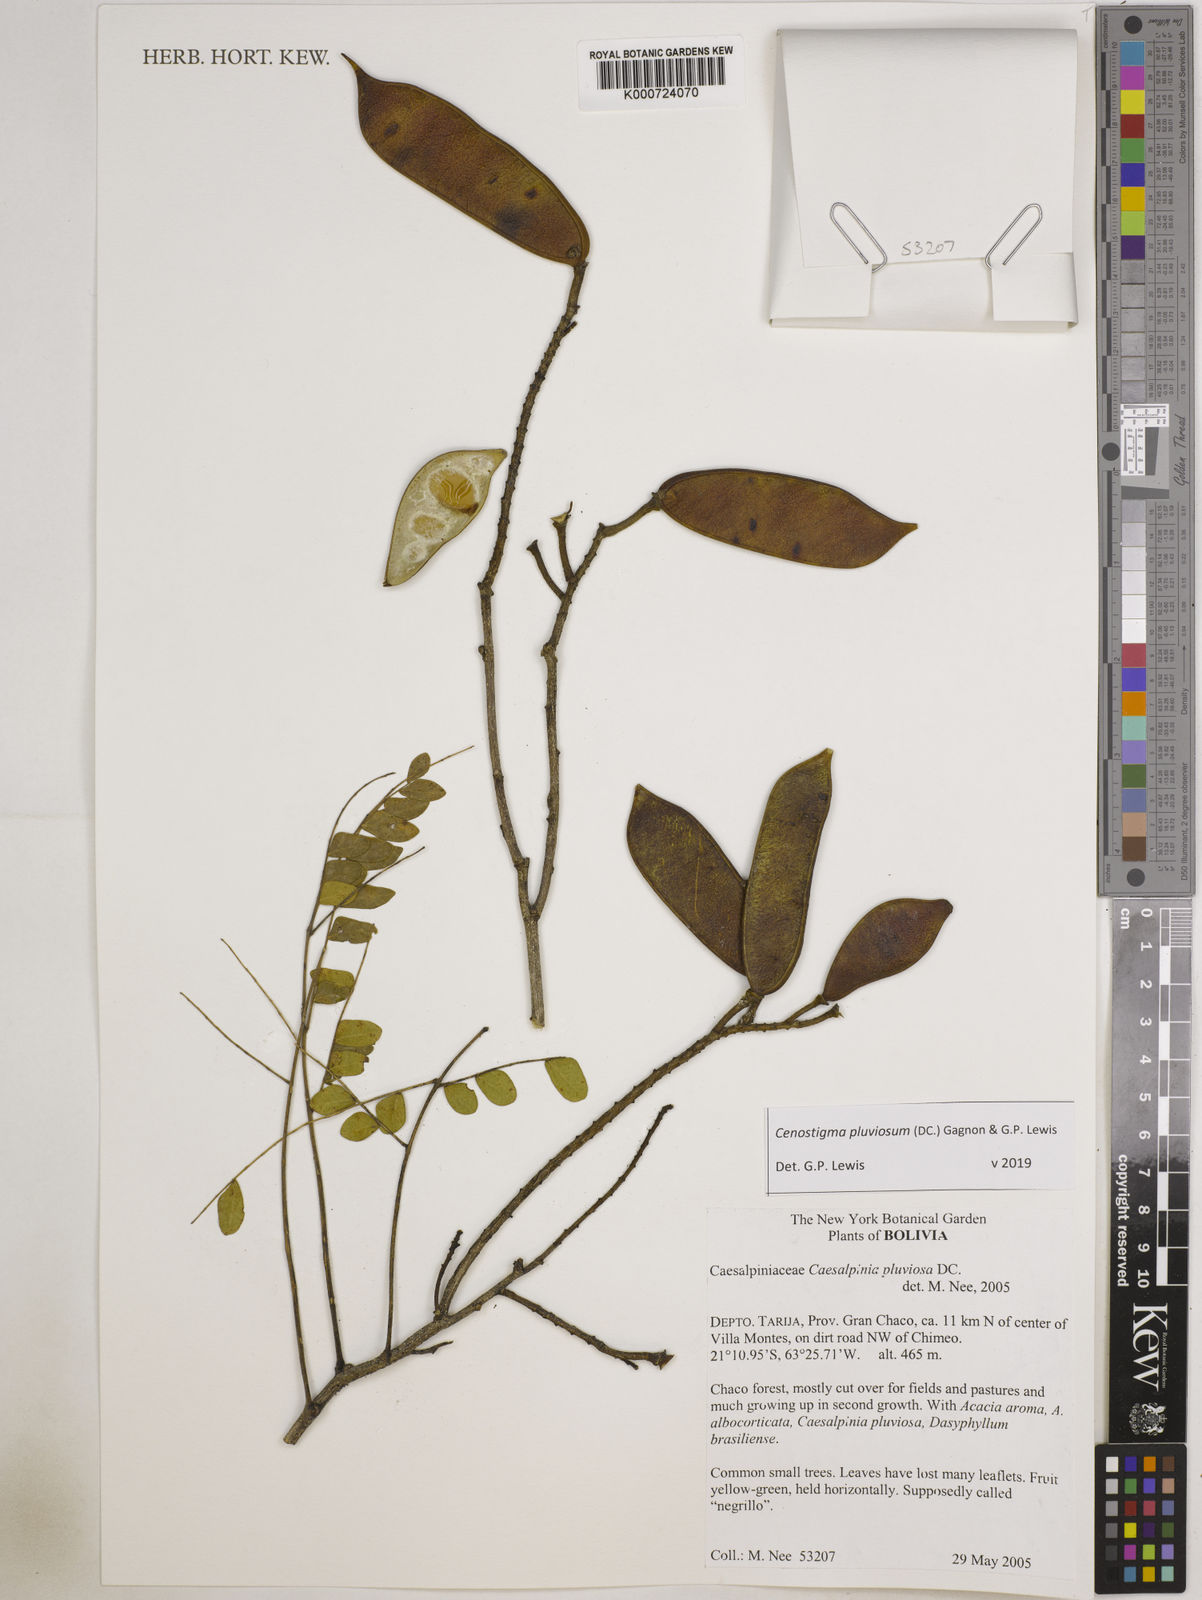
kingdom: Plantae
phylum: Tracheophyta
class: Magnoliopsida
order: Fabales
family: Fabaceae
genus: Cenostigma
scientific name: Cenostigma pluviosum
